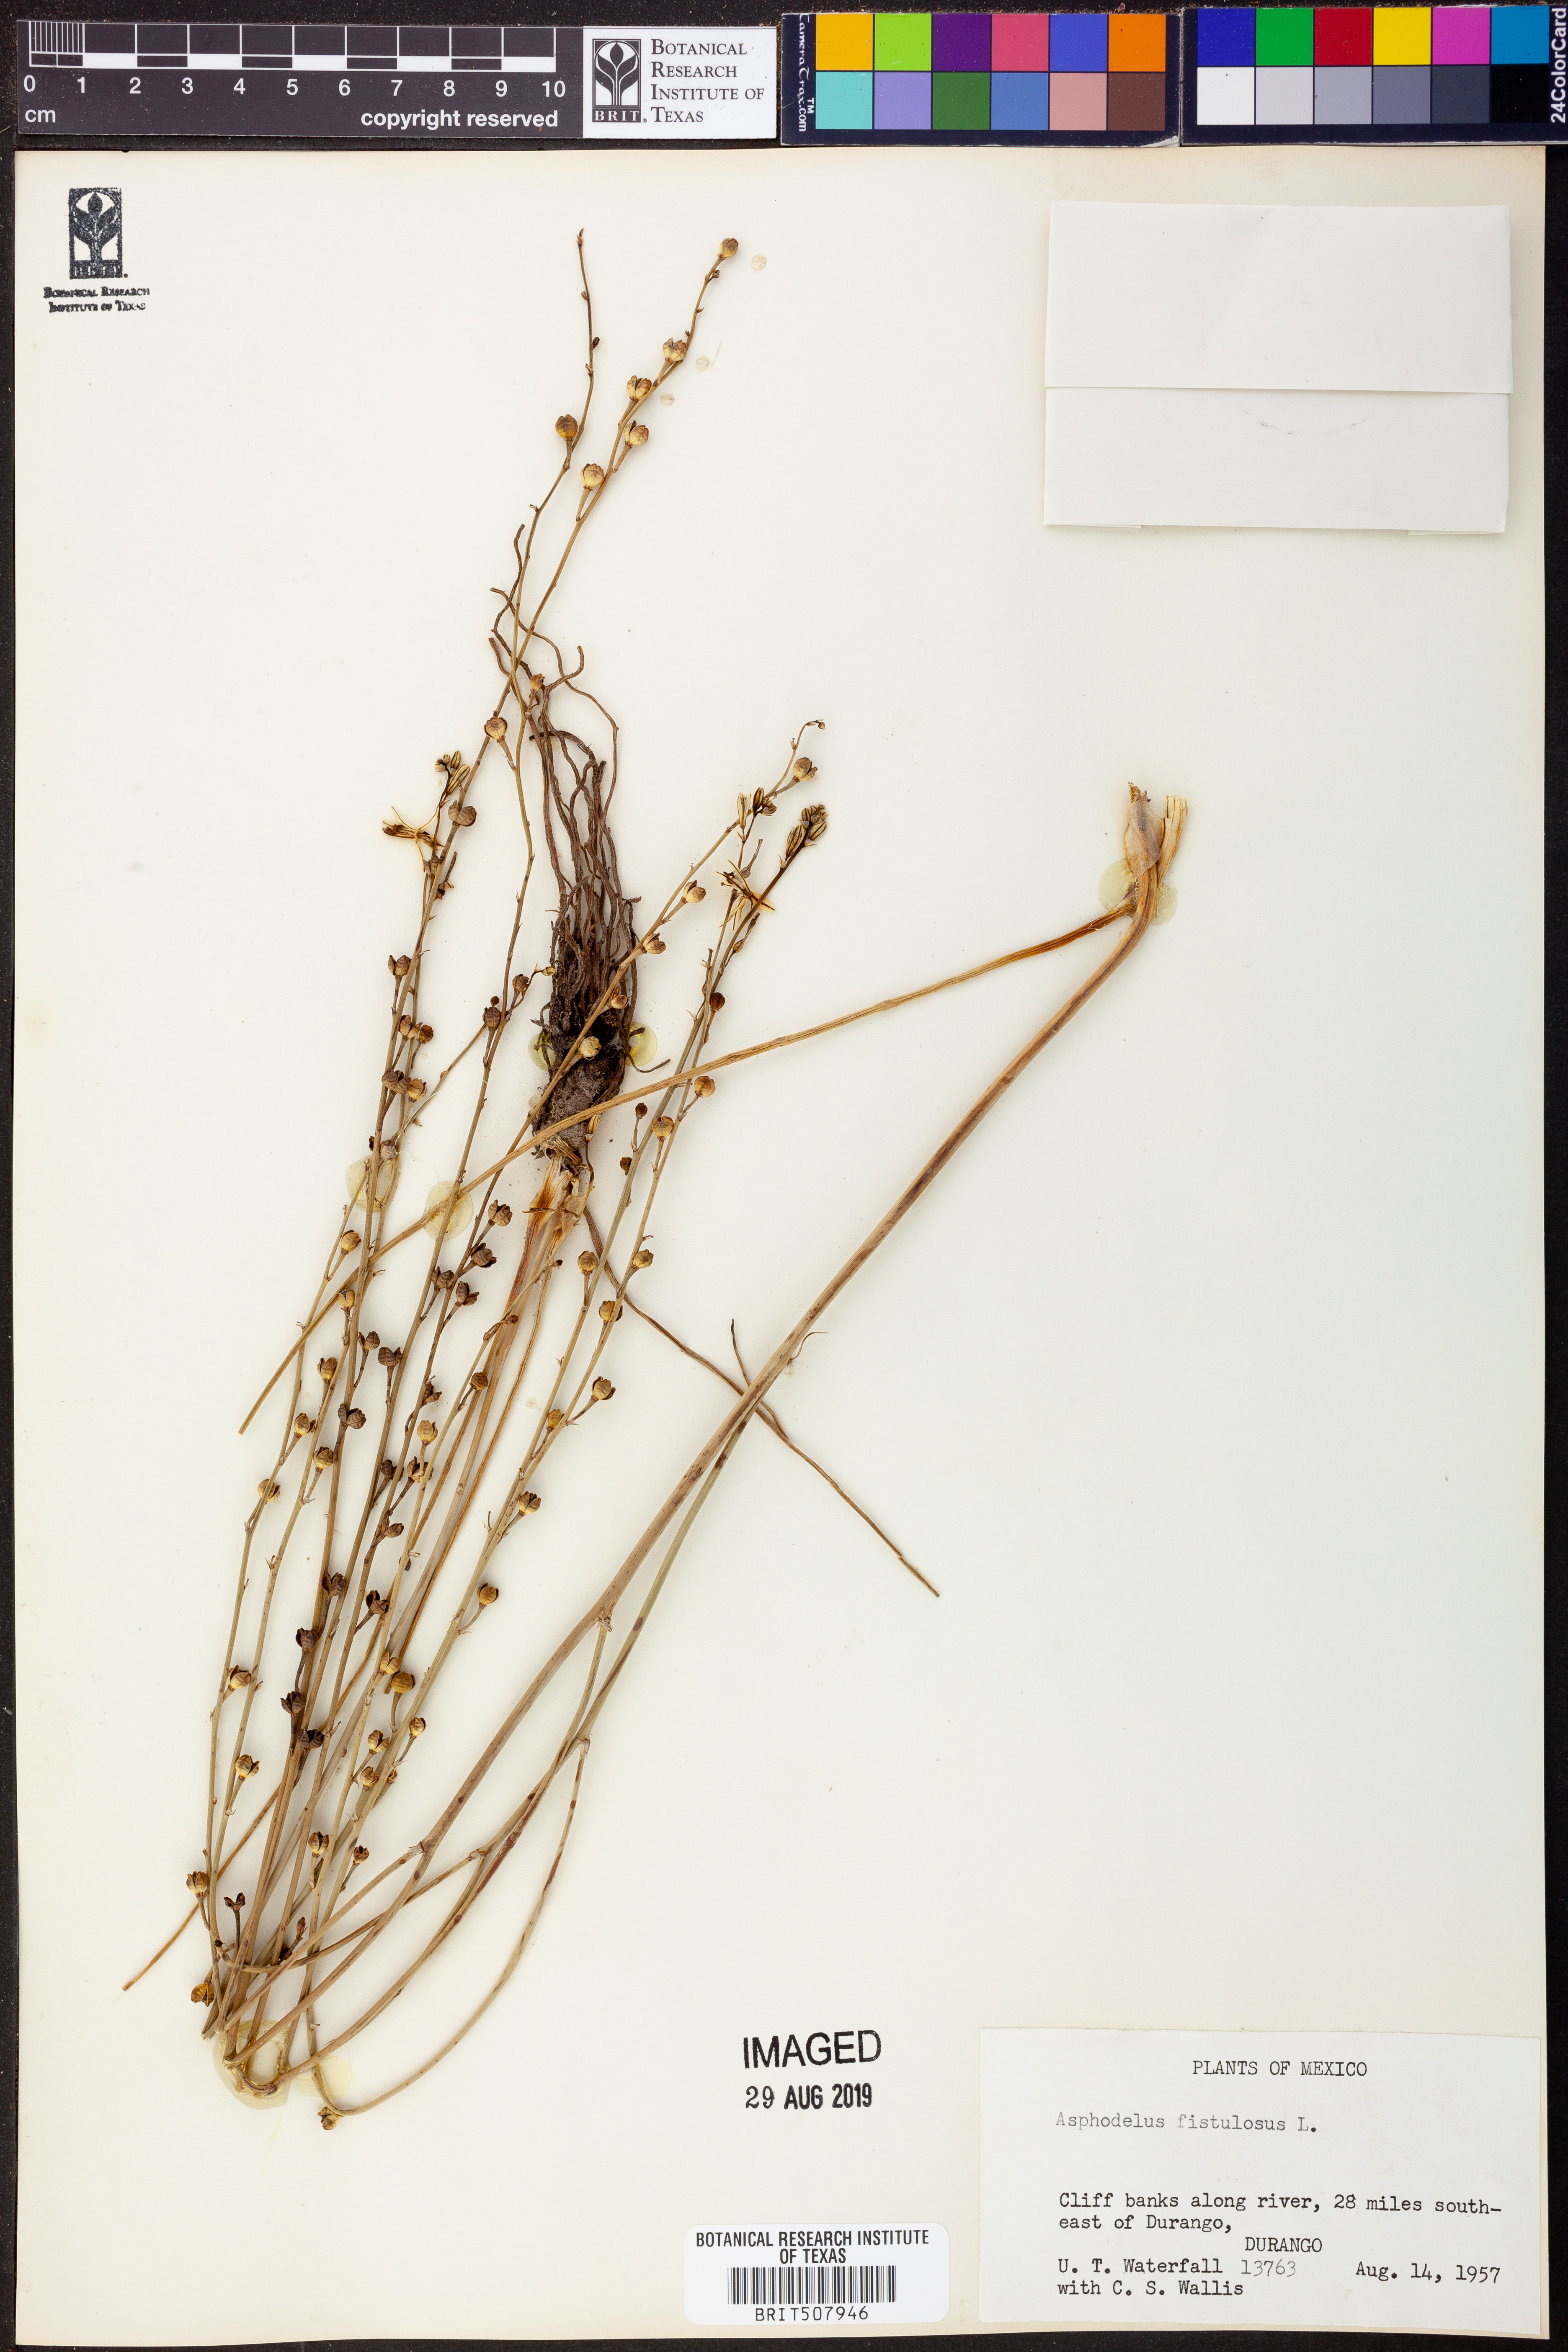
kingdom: Plantae
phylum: Tracheophyta
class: Liliopsida
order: Asparagales
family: Asphodelaceae
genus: Asphodelus
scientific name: Asphodelus fistulosus
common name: Onionweed
